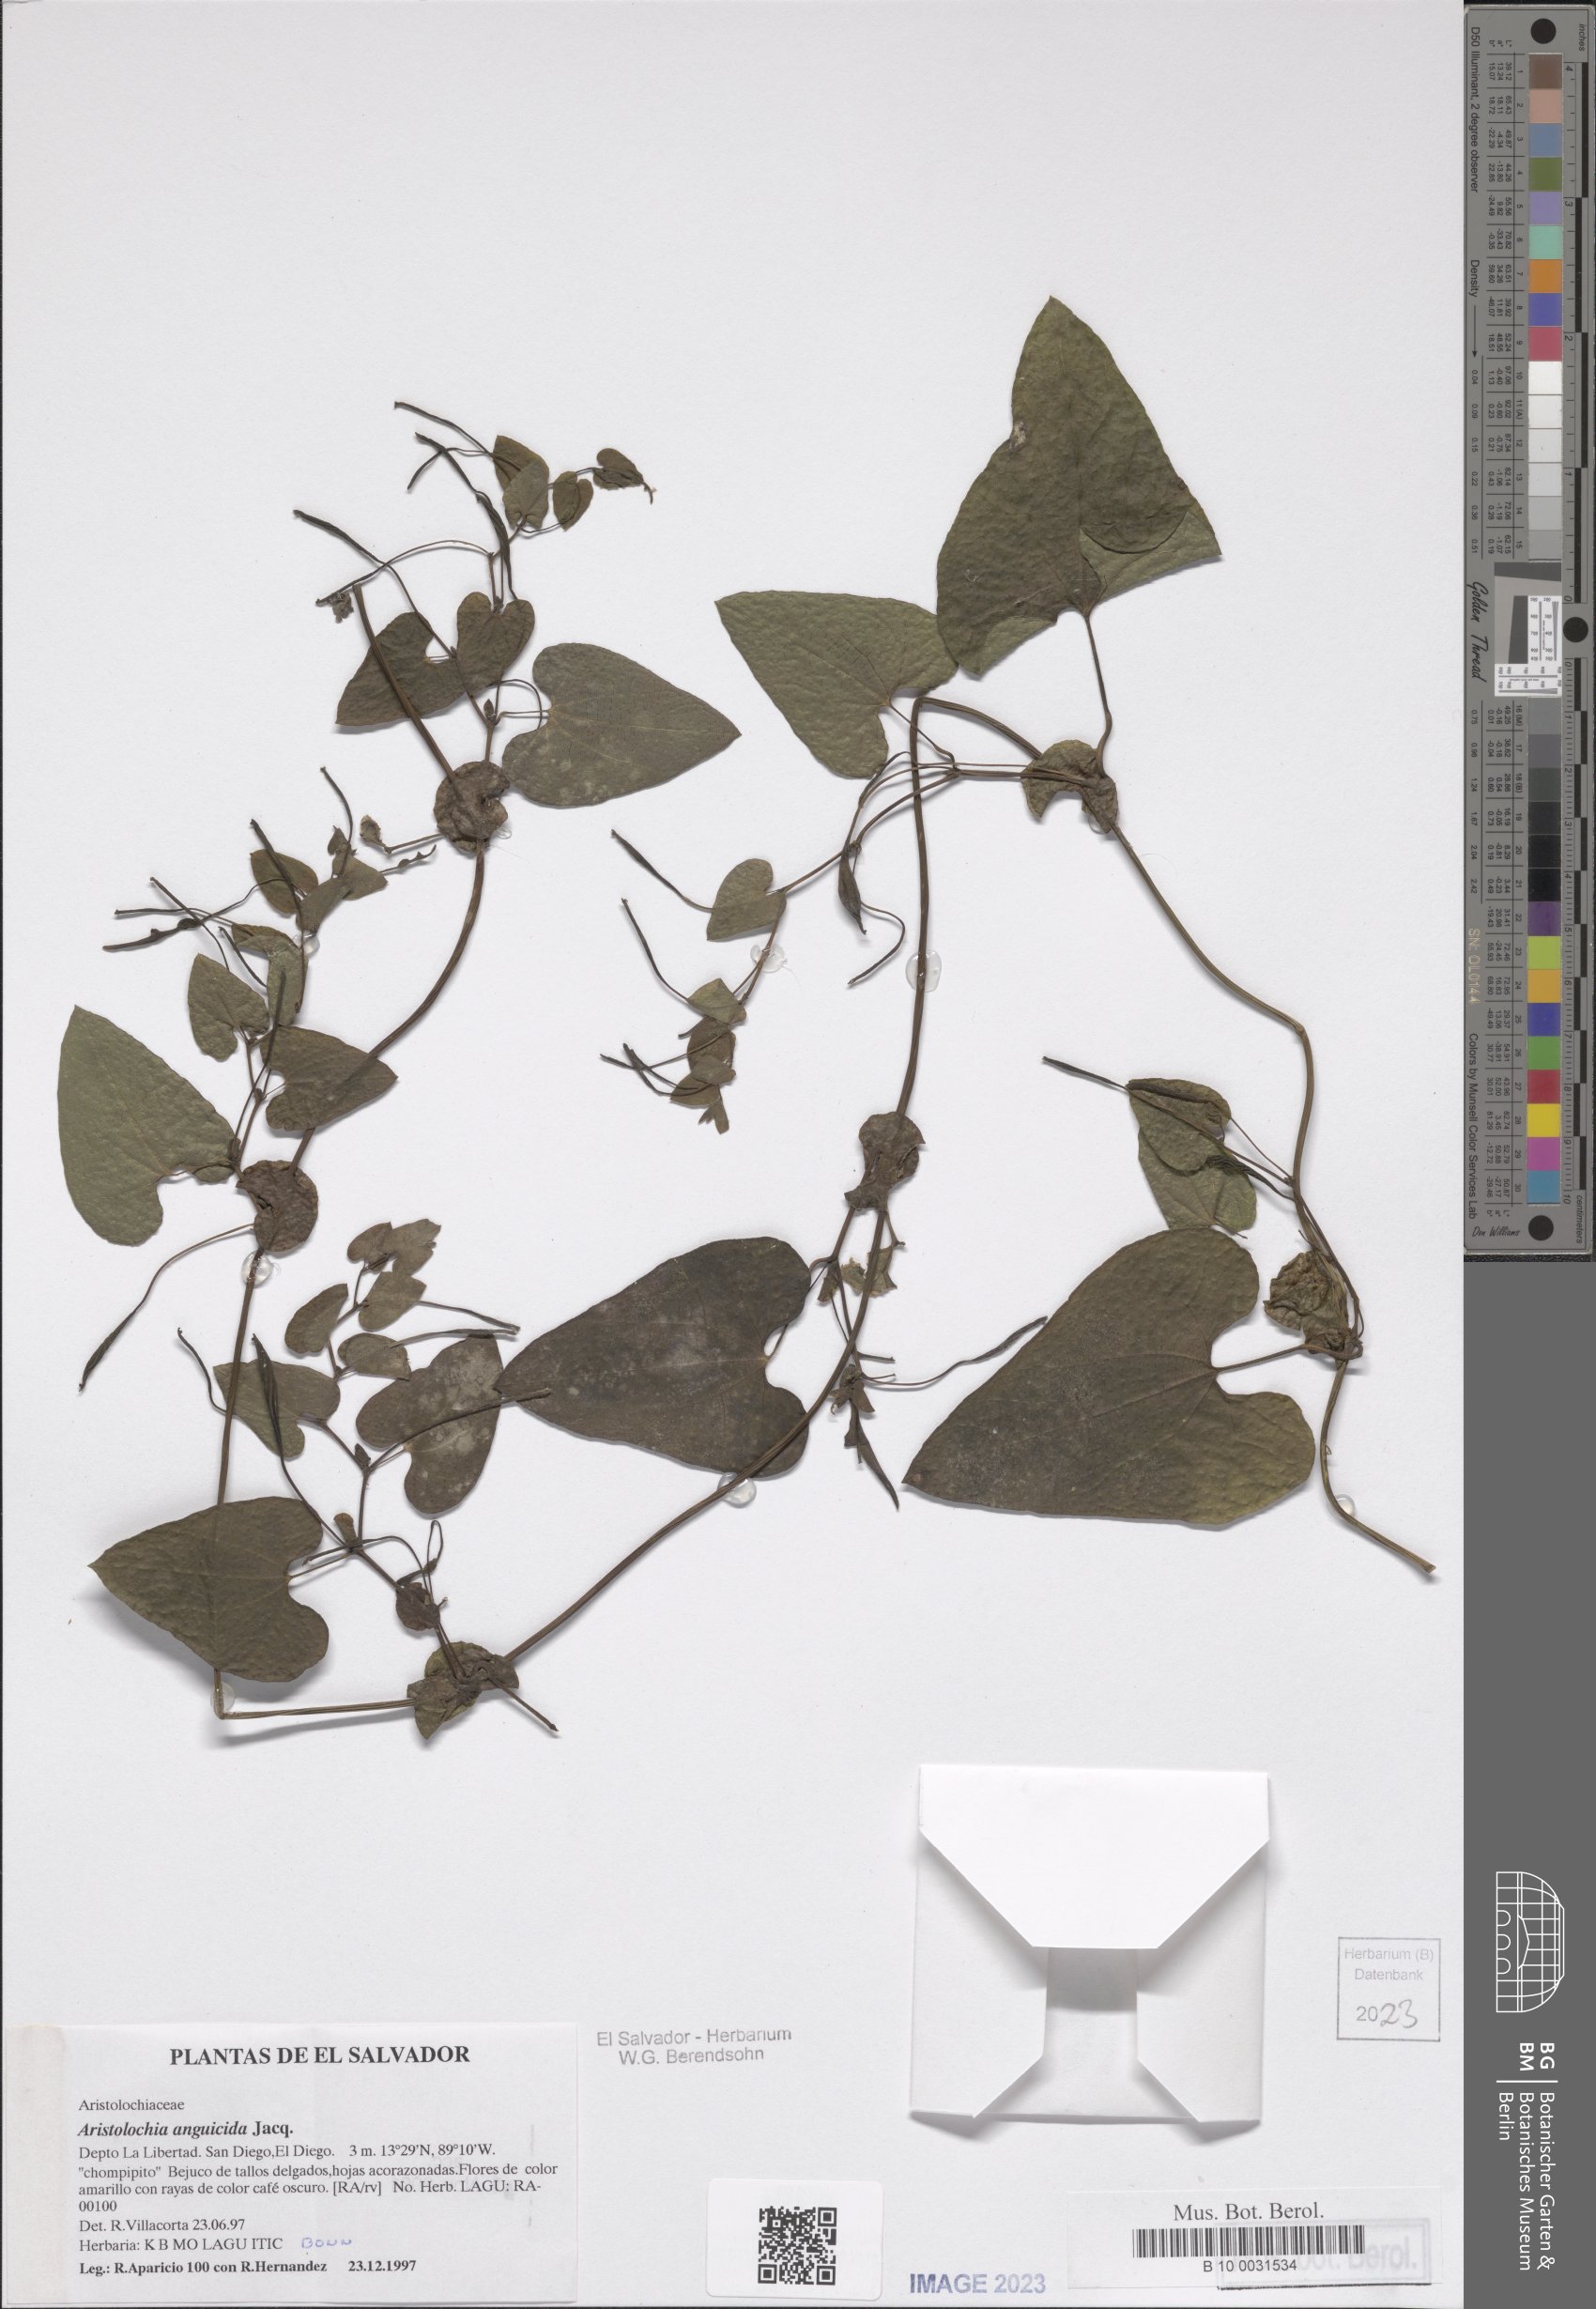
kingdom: Plantae
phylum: Tracheophyta
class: Magnoliopsida
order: Piperales
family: Aristolochiaceae
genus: Aristolochia
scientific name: Aristolochia anguicida
